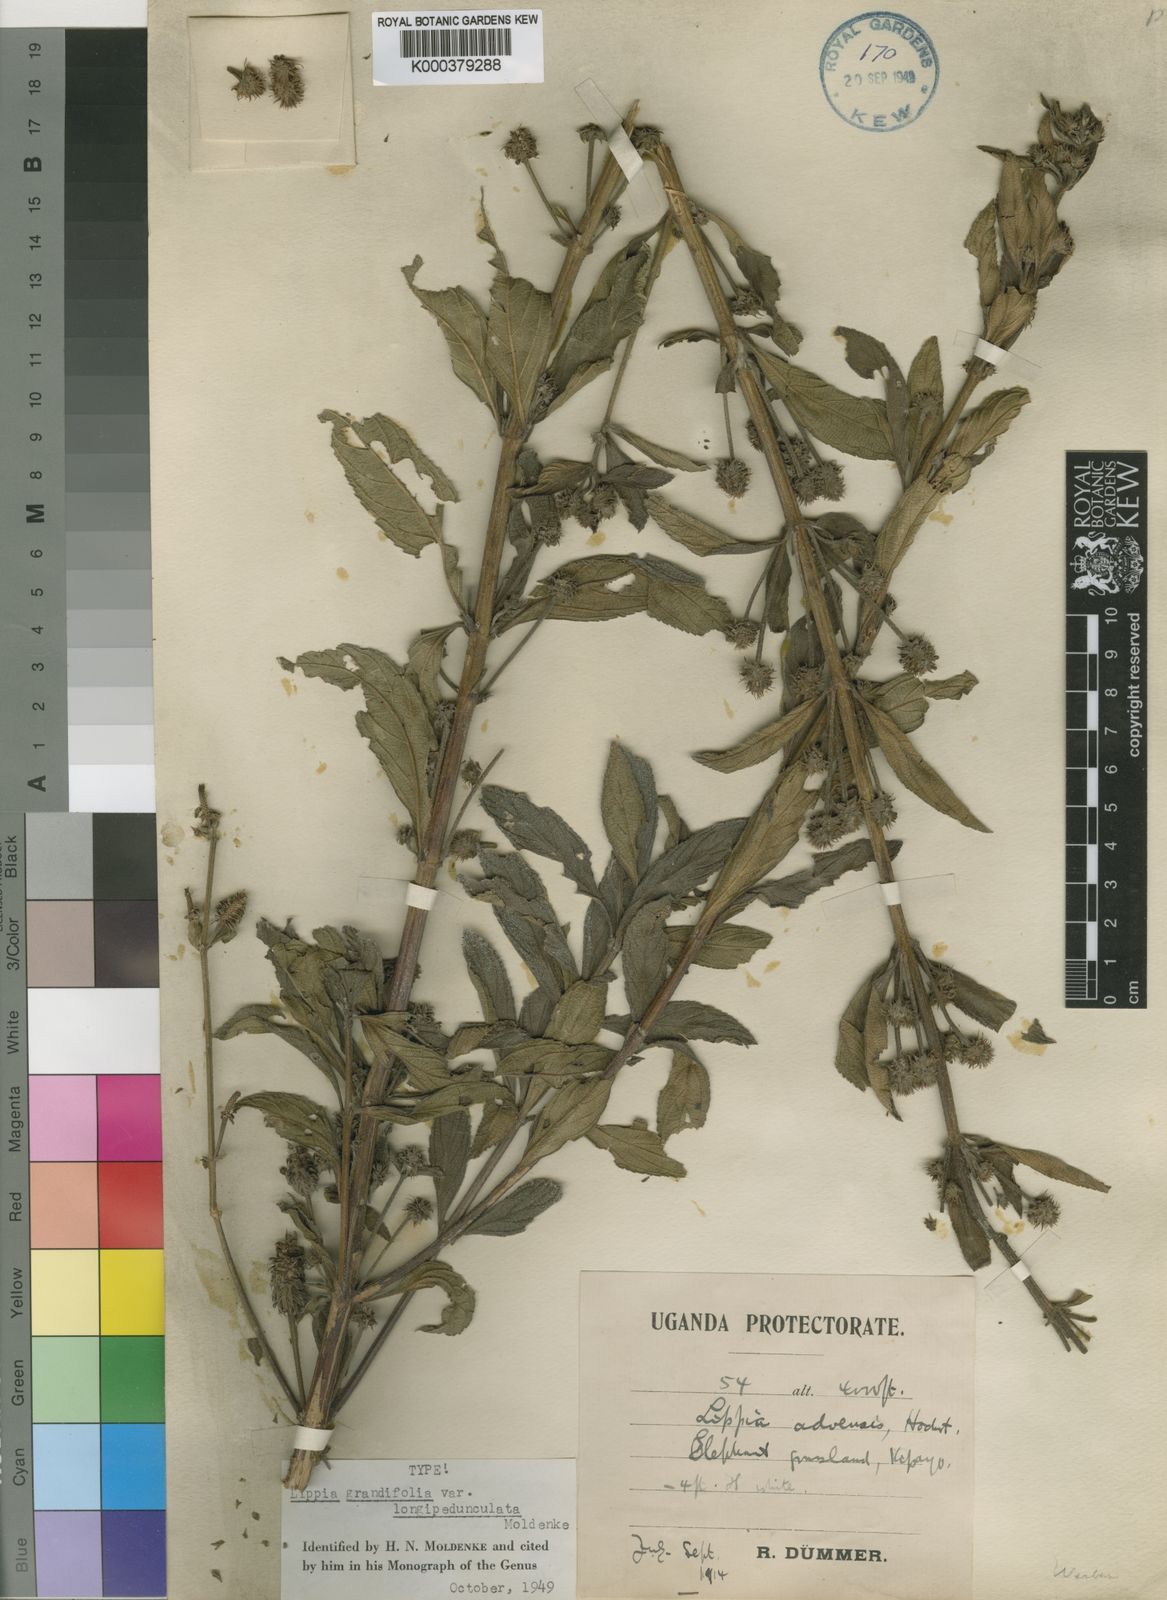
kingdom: Plantae
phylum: Tracheophyta
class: Magnoliopsida
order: Lamiales
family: Verbenaceae
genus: Lippia
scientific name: Lippia abyssinica
